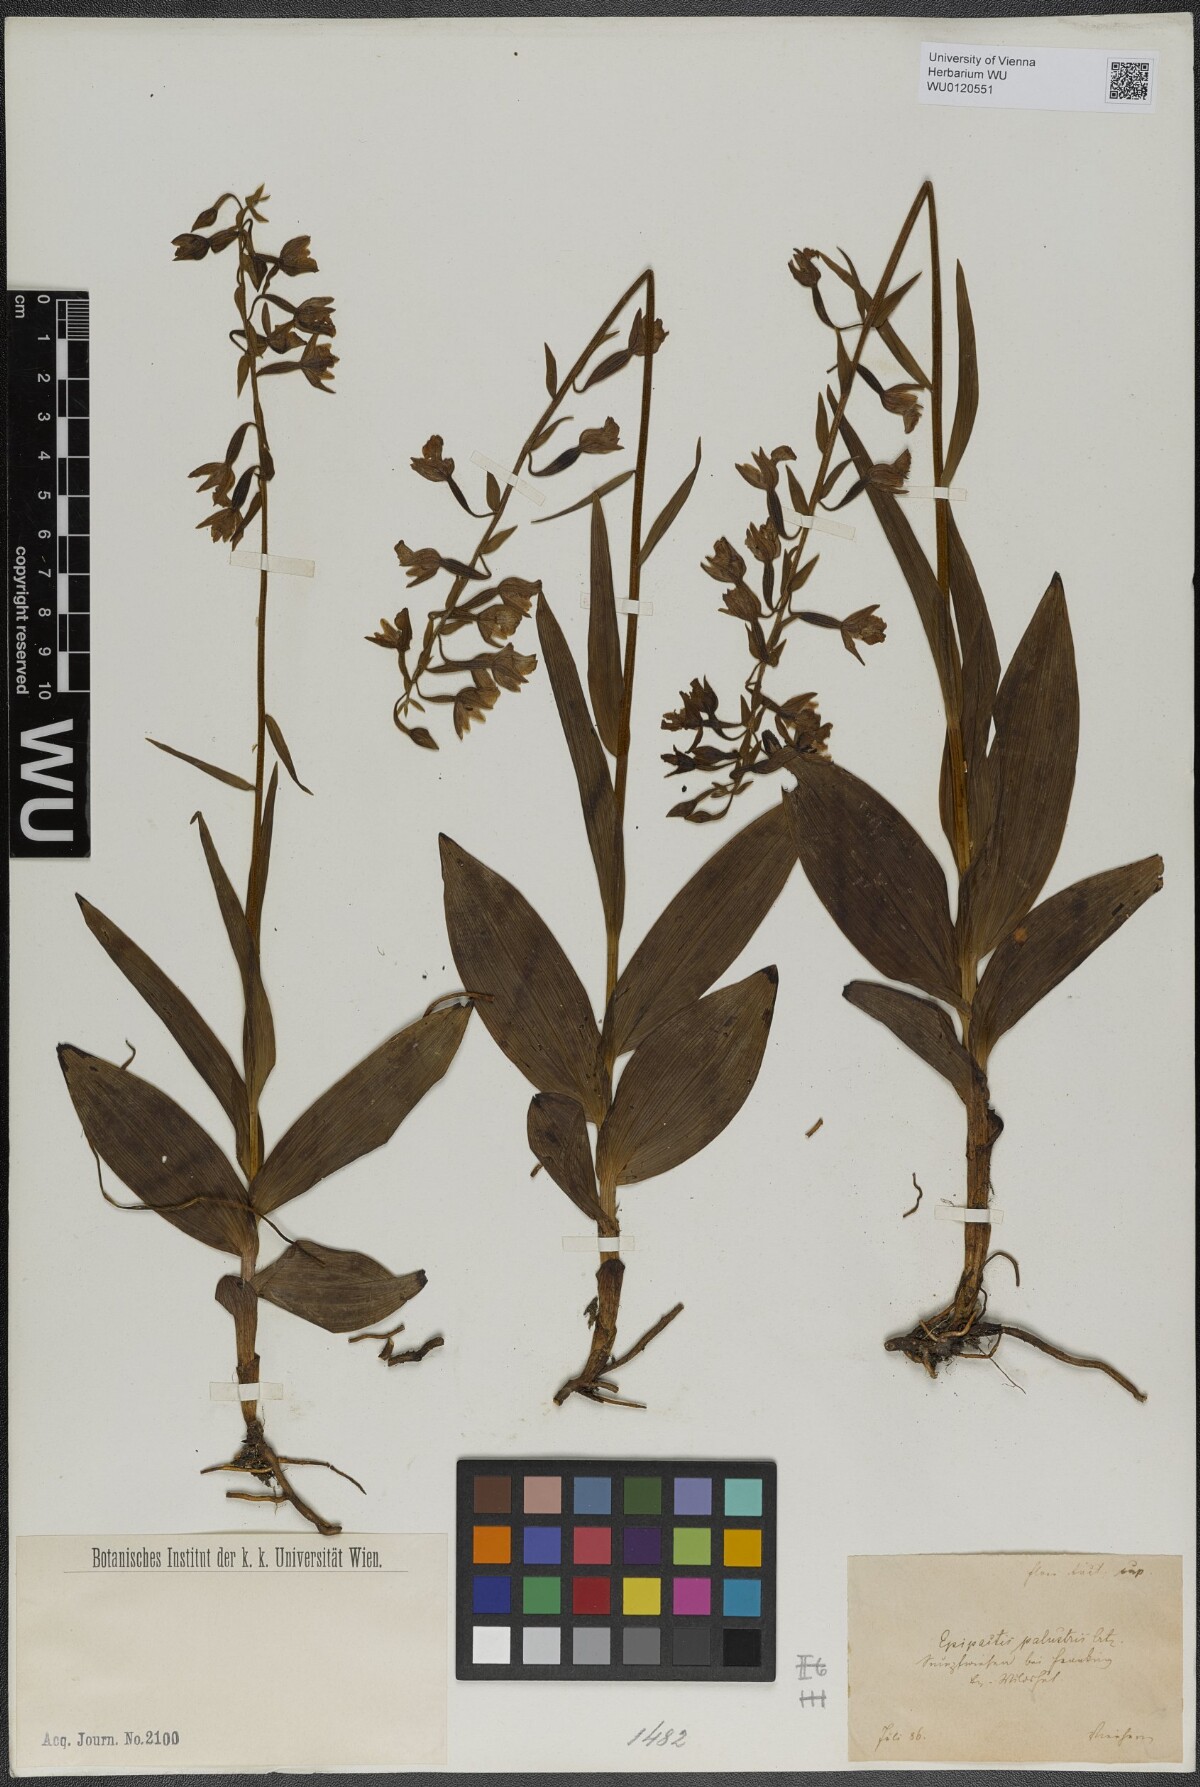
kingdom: Plantae
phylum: Tracheophyta
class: Liliopsida
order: Asparagales
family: Orchidaceae
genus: Epipactis
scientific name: Epipactis palustris
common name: Marsh helleborine
